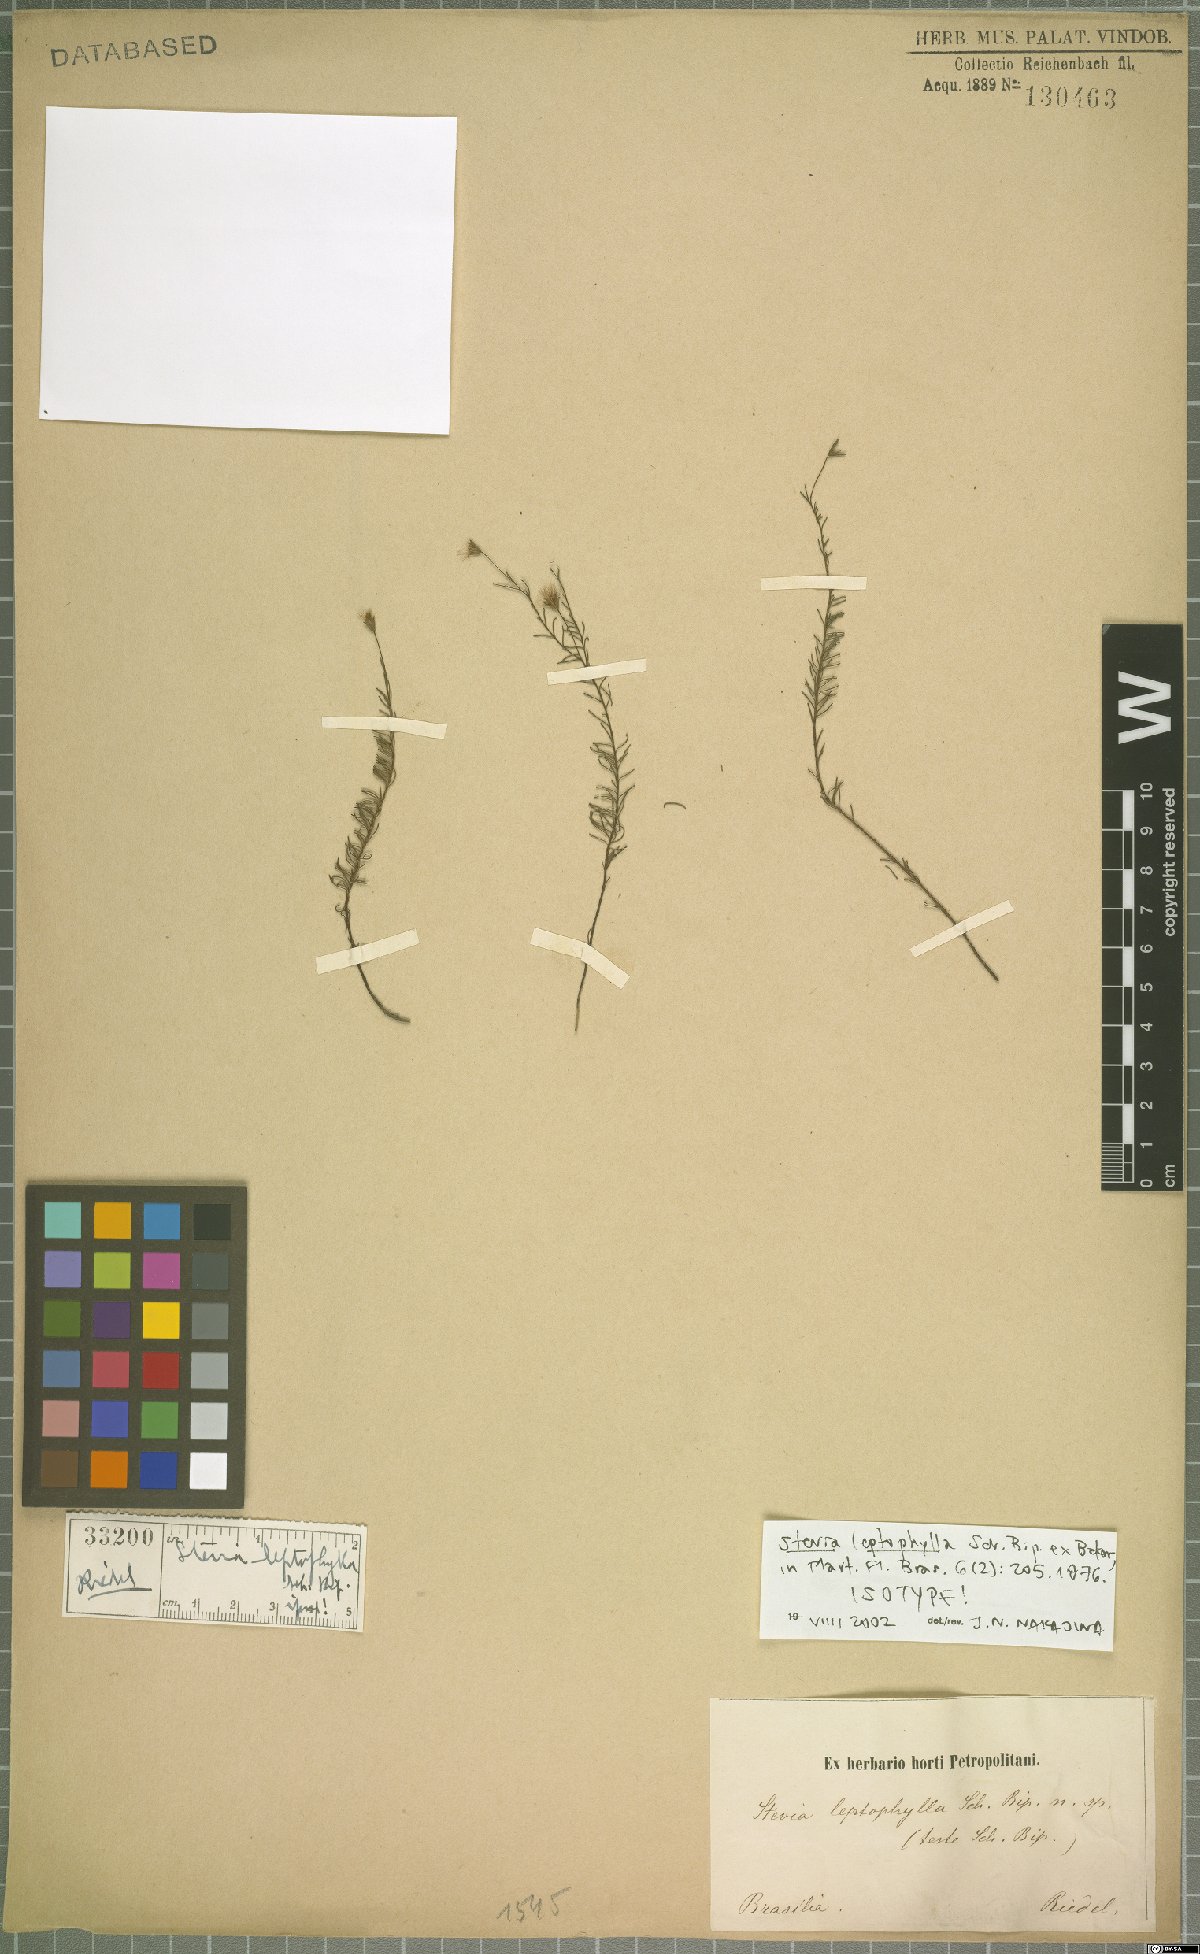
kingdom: Plantae
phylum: Tracheophyta
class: Magnoliopsida
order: Asterales
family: Asteraceae
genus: Stevia
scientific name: Stevia leptophylla
